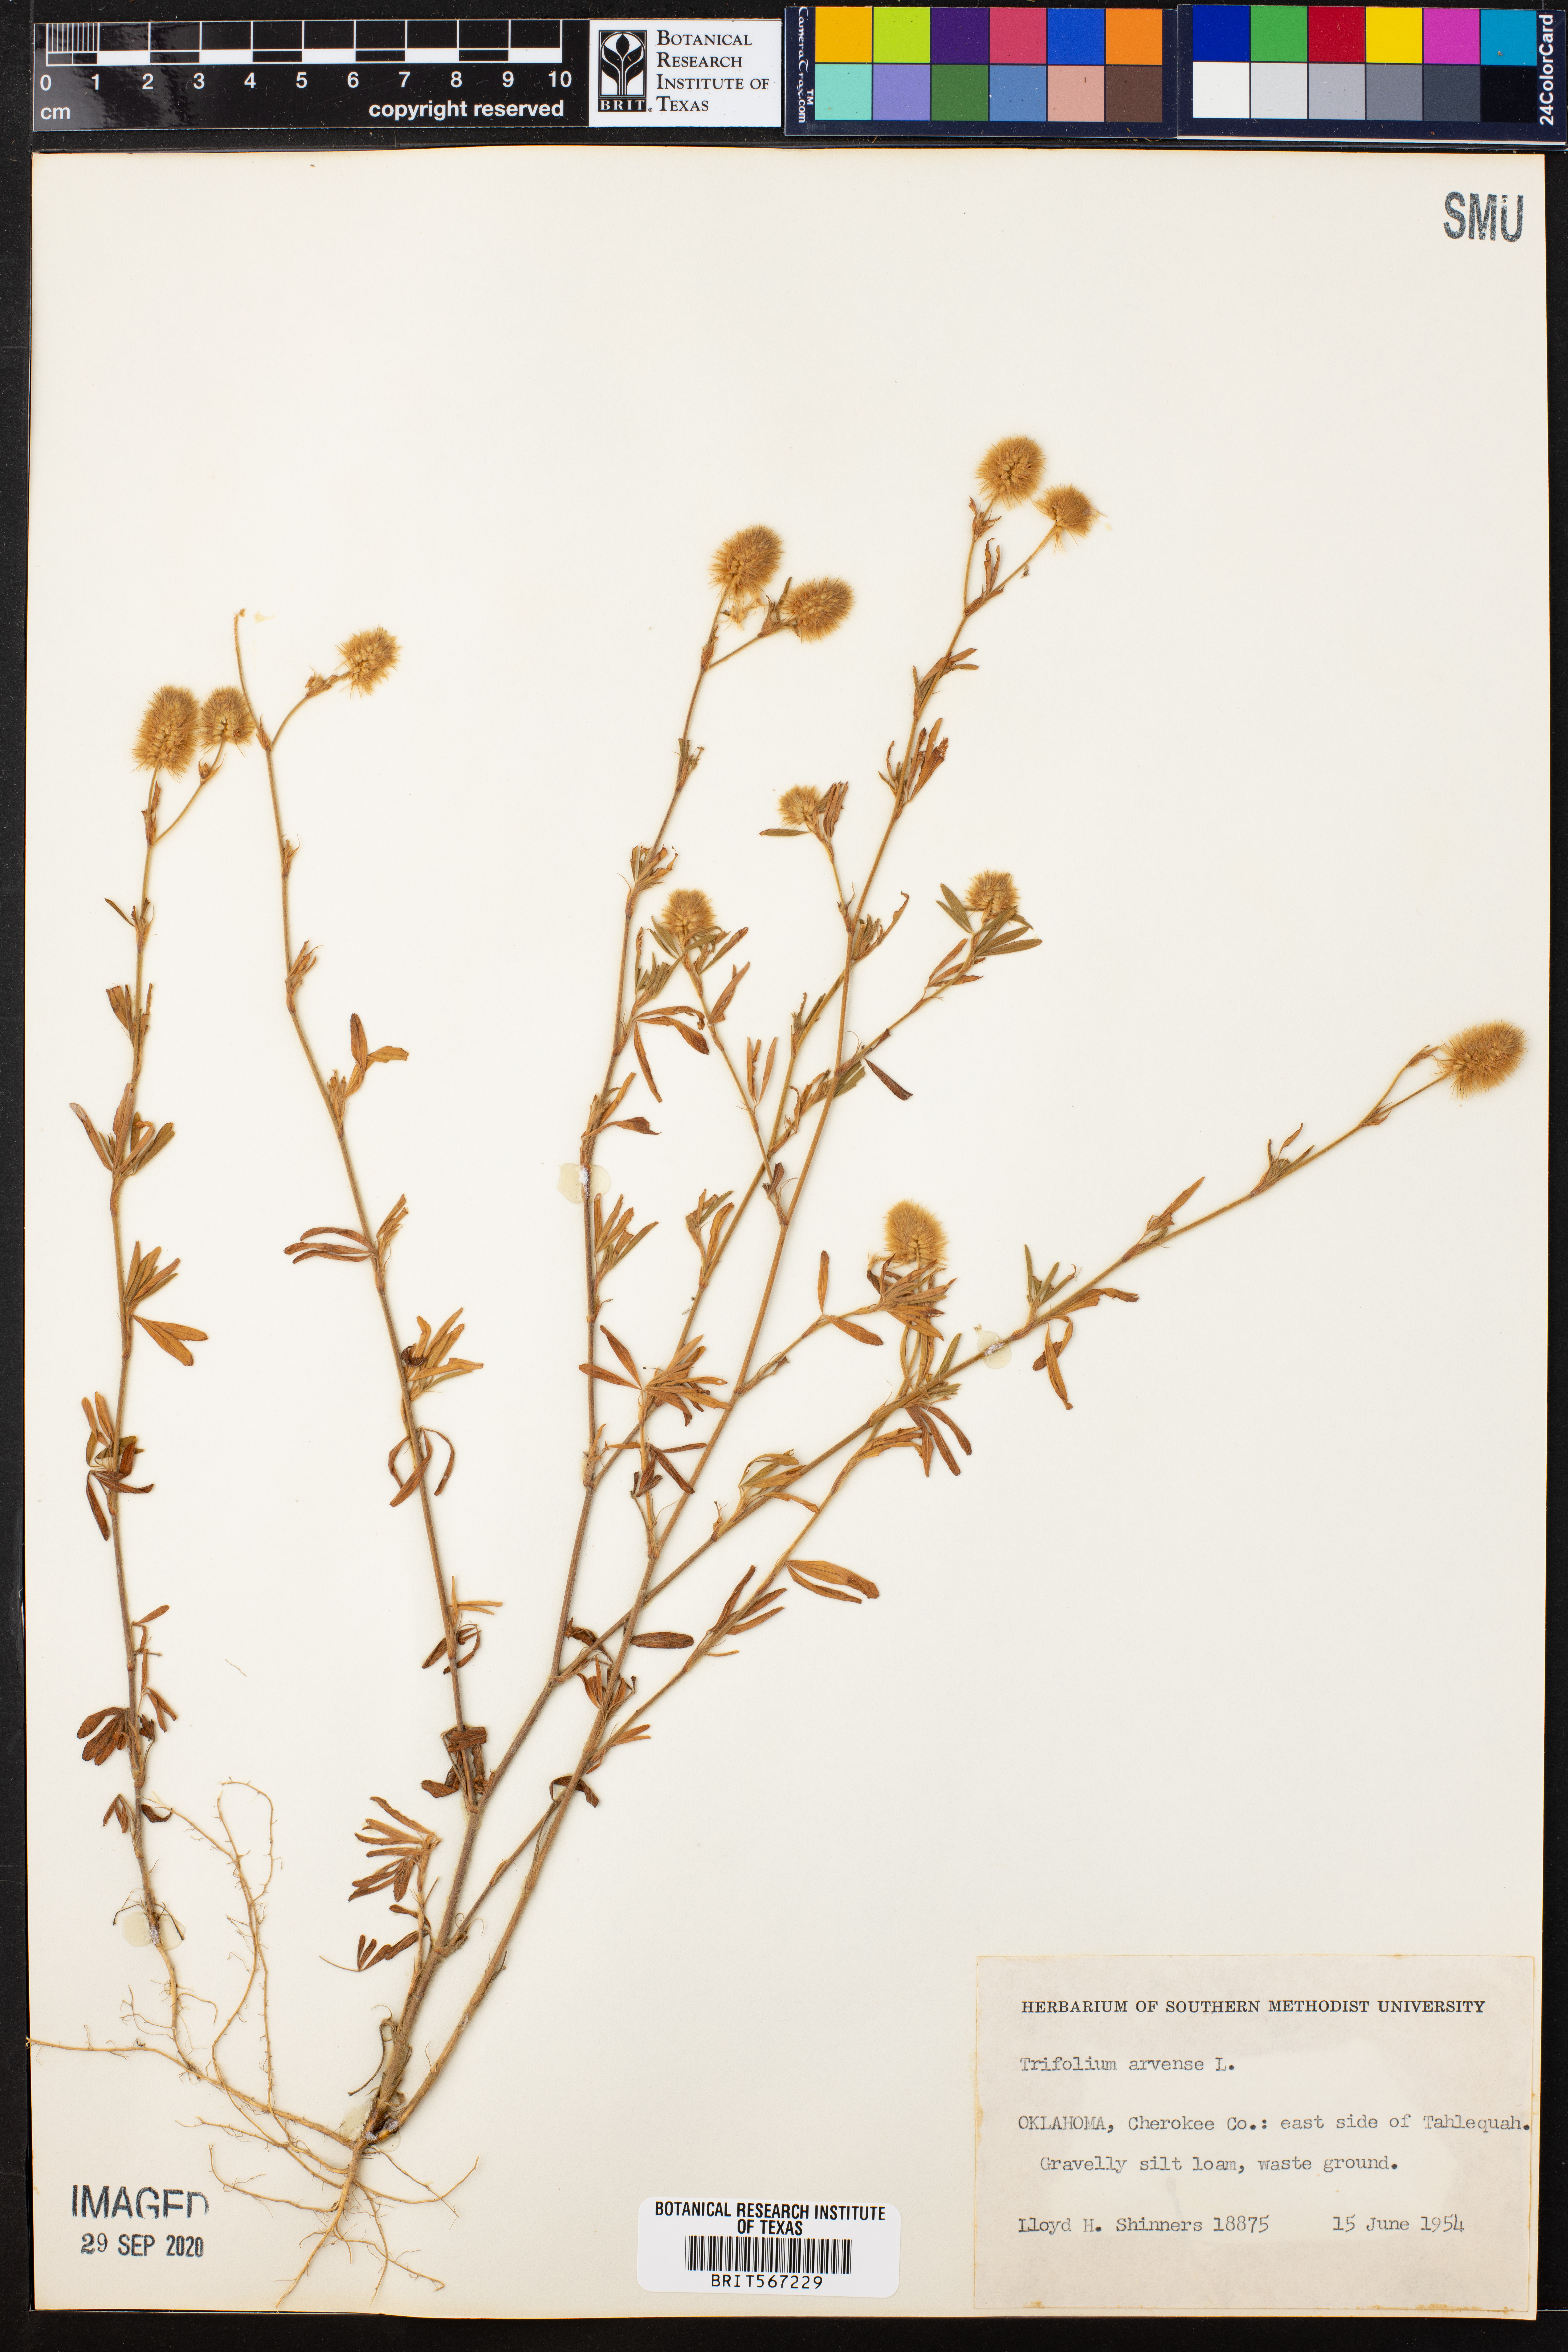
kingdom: Plantae
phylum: Tracheophyta
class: Magnoliopsida
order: Fabales
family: Fabaceae
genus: Trifolium
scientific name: Trifolium arvense
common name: Hare's-foot clover
